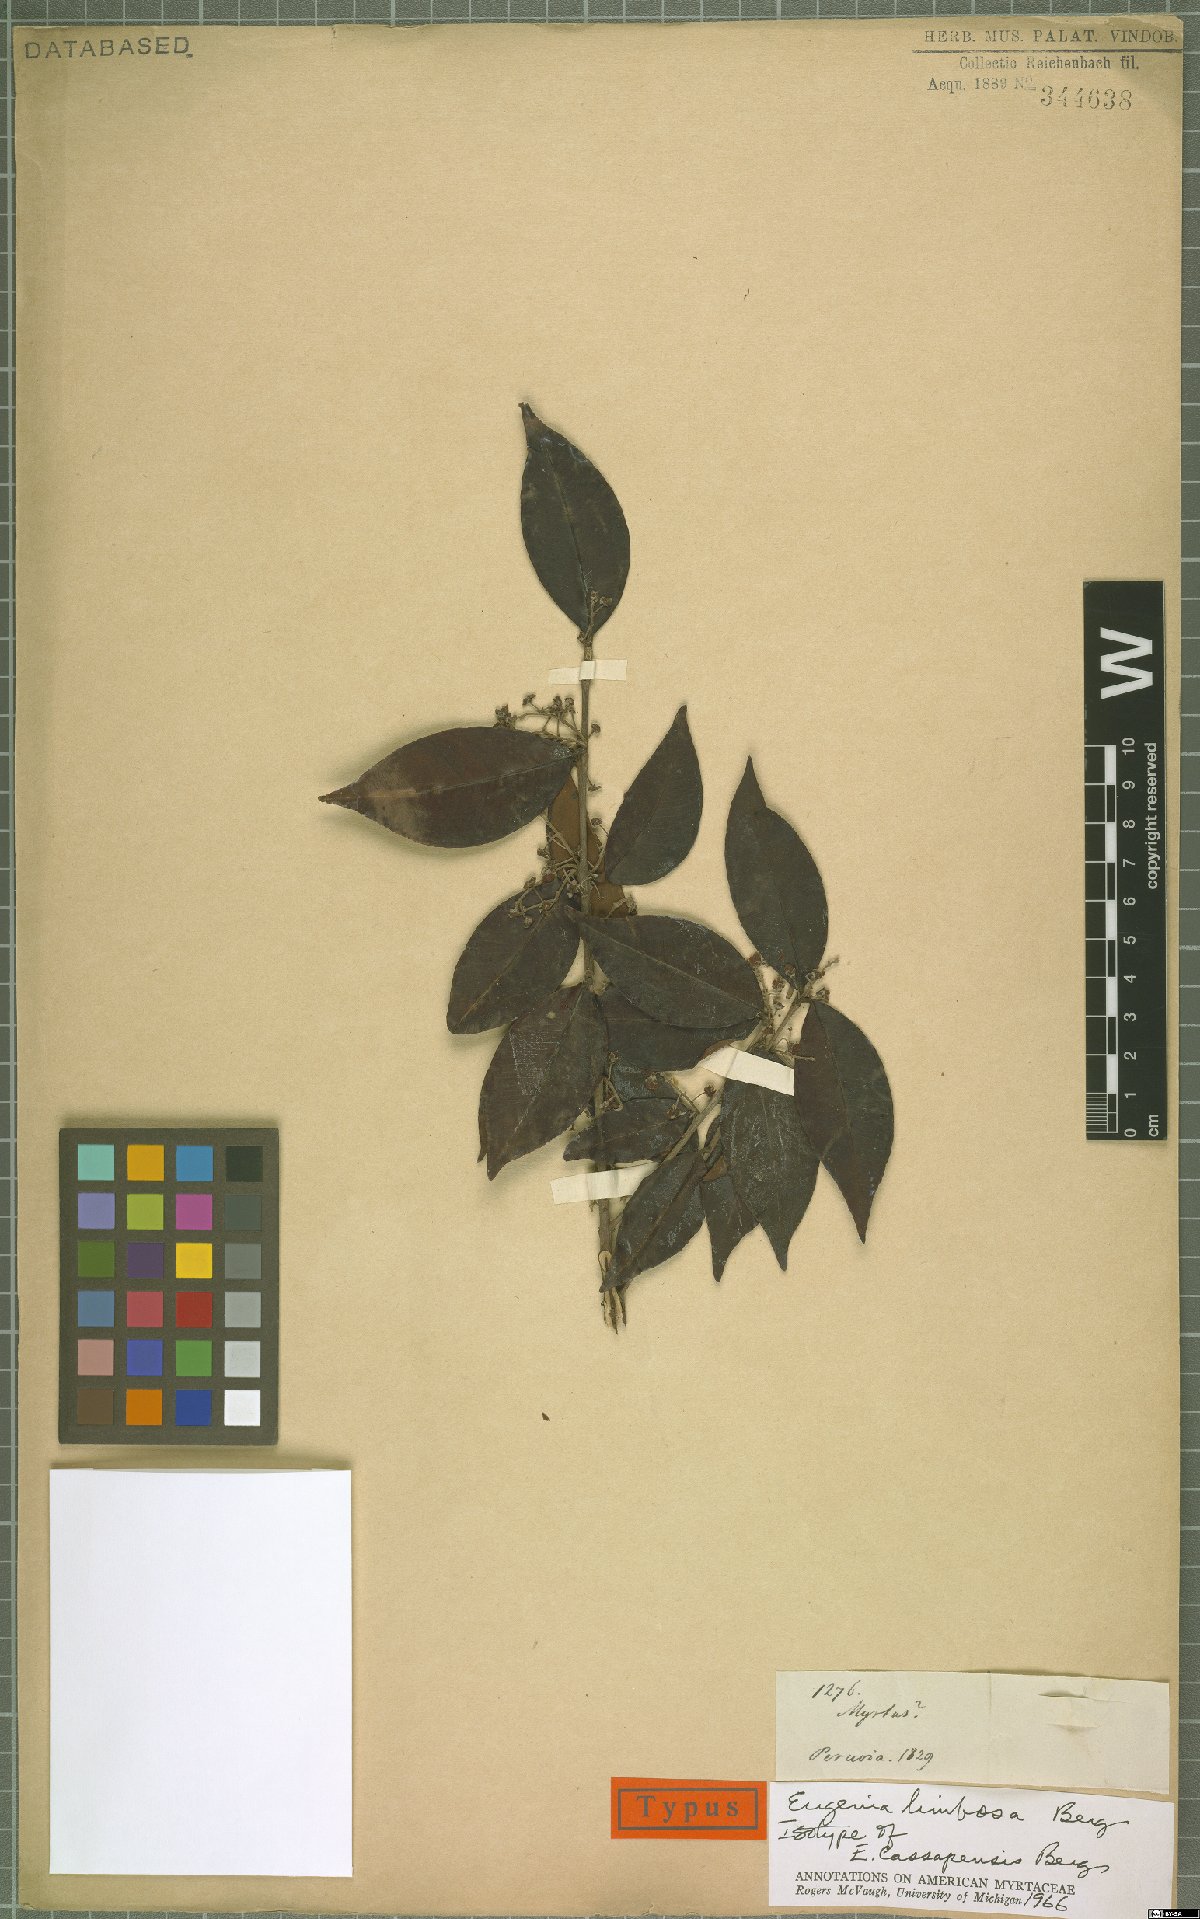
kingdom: Plantae
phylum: Tracheophyta
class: Magnoliopsida
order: Myrtales
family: Myrtaceae
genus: Eugenia
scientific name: Eugenia limbosa
